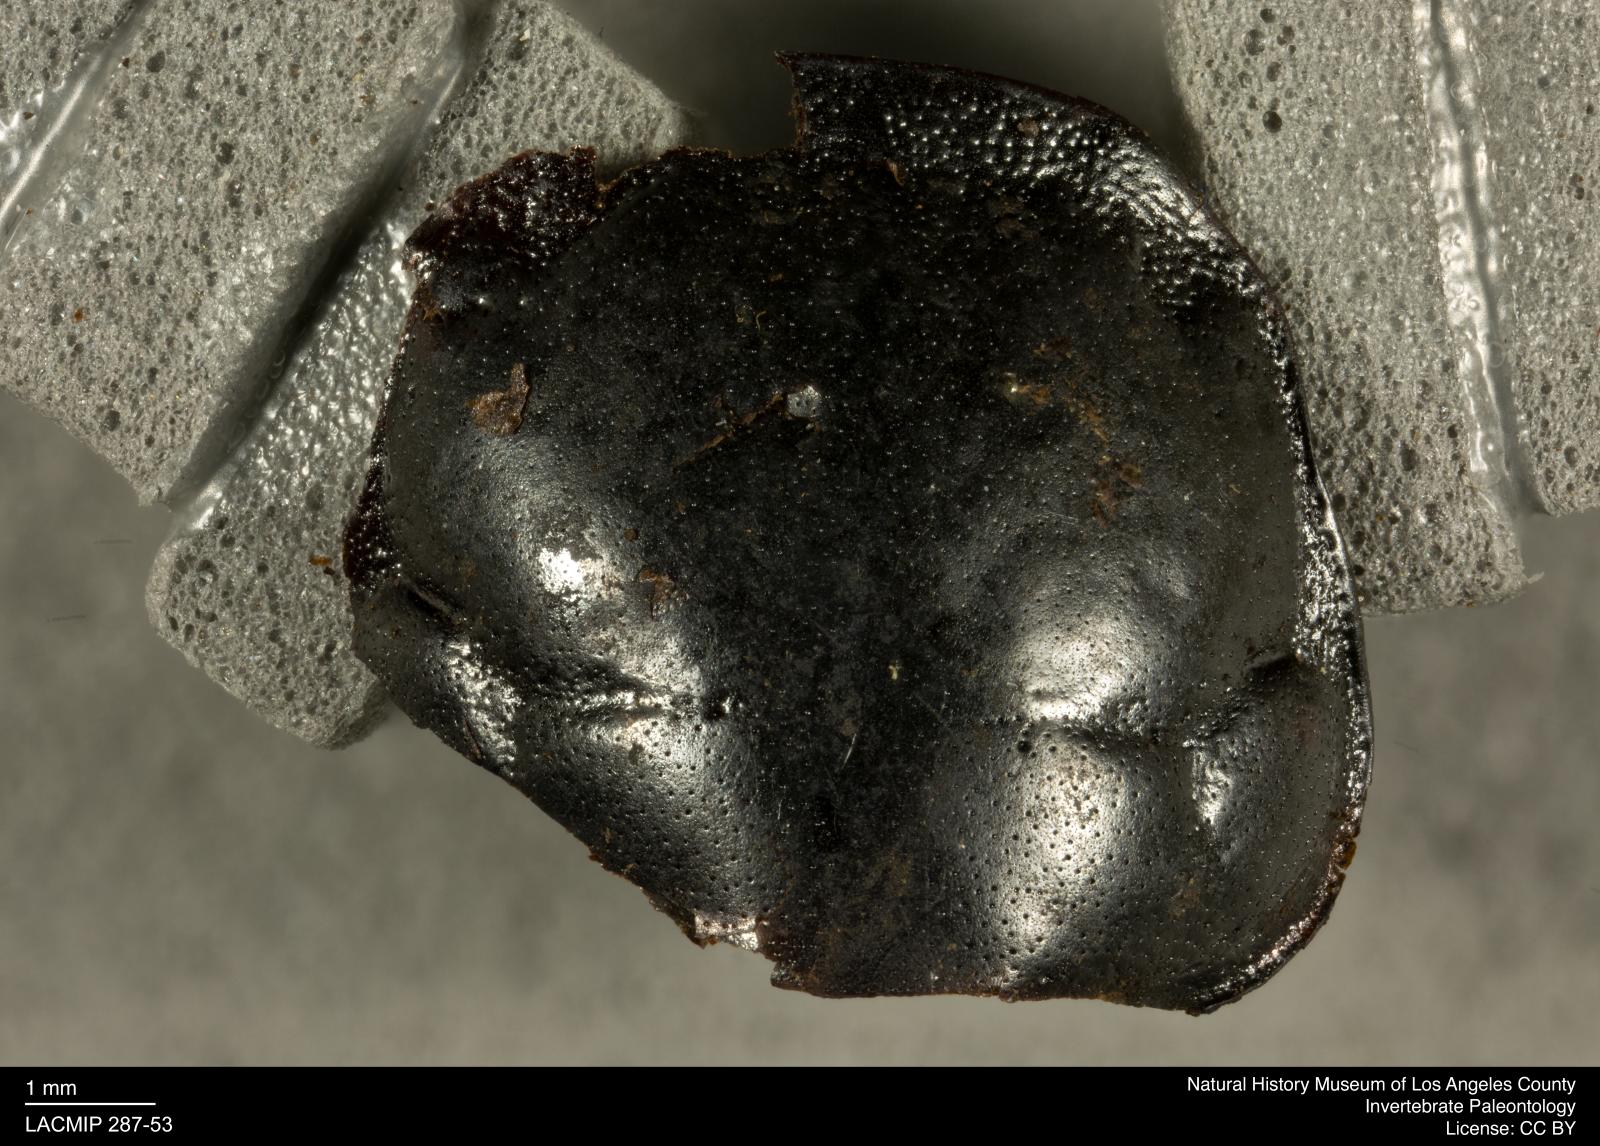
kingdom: Animalia
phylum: Arthropoda
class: Insecta
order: Coleoptera
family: Staphylinidae
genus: Nicrophorus
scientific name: Nicrophorus marginatus
